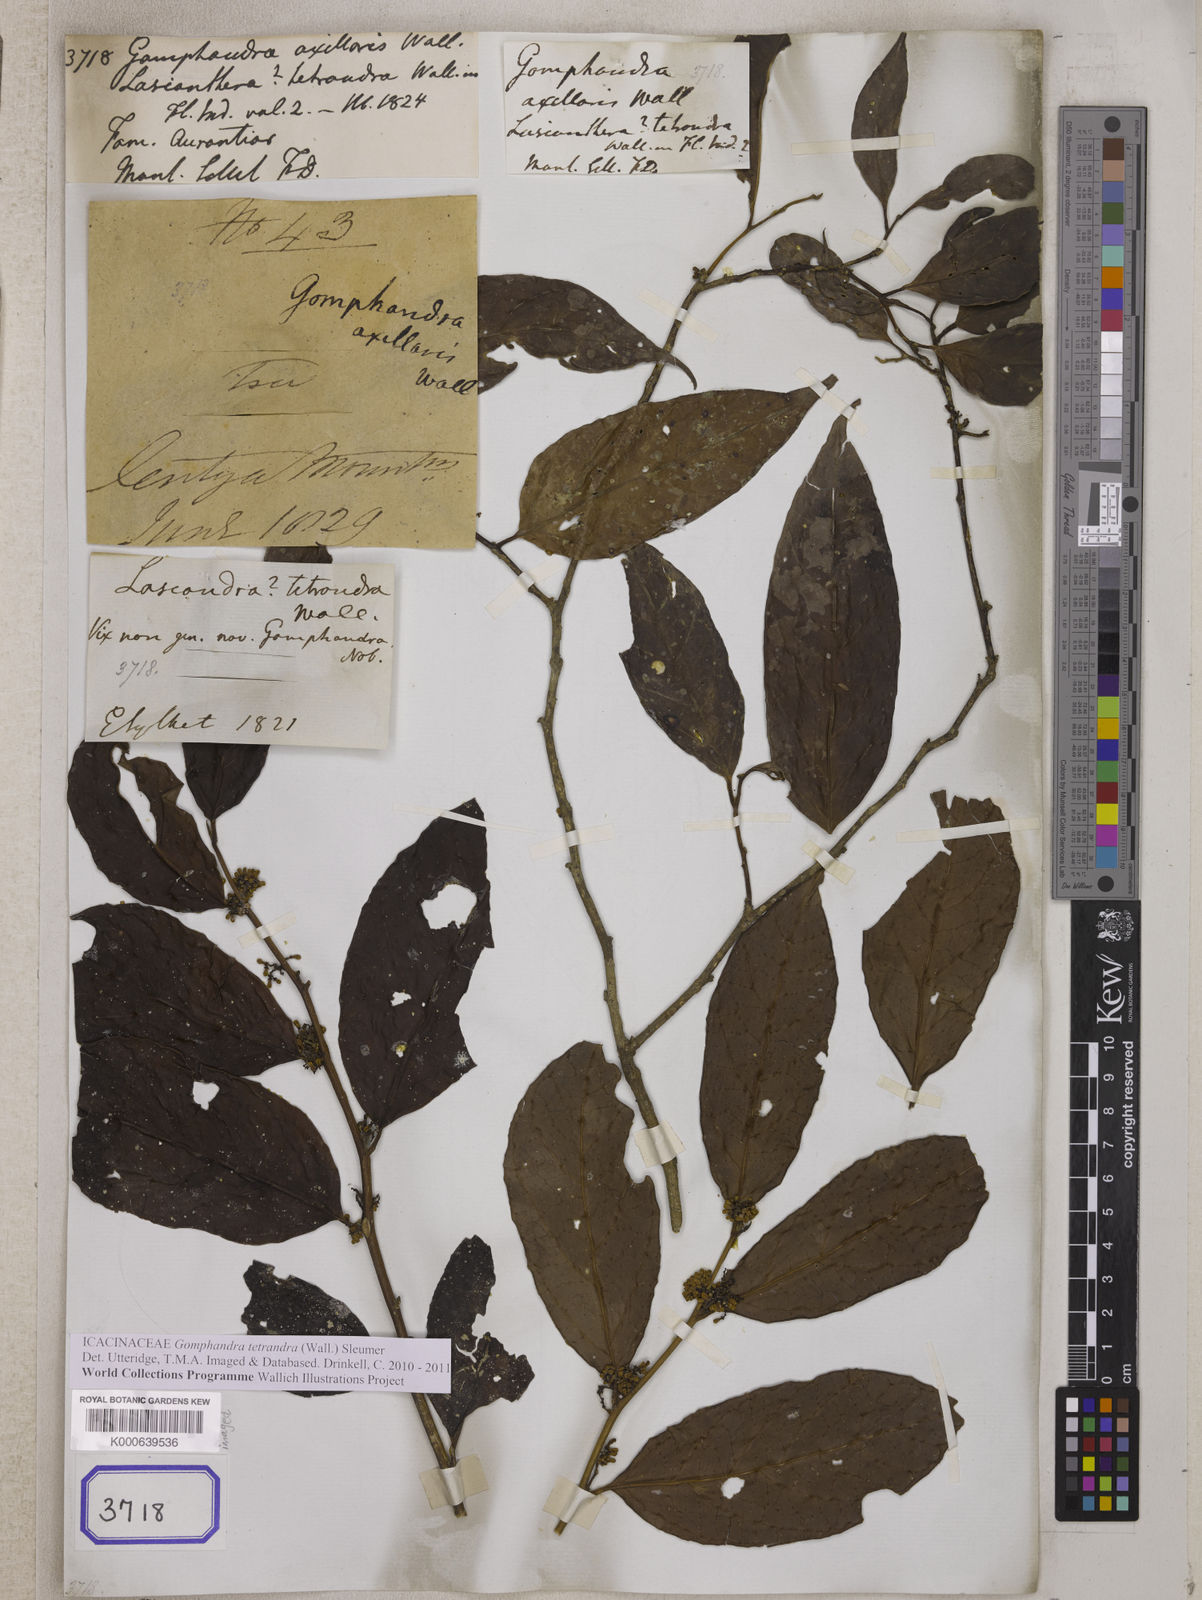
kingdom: Plantae
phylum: Tracheophyta
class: Magnoliopsida
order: Cardiopteridales
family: Stemonuraceae
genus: Gomphandra
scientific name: Gomphandra
